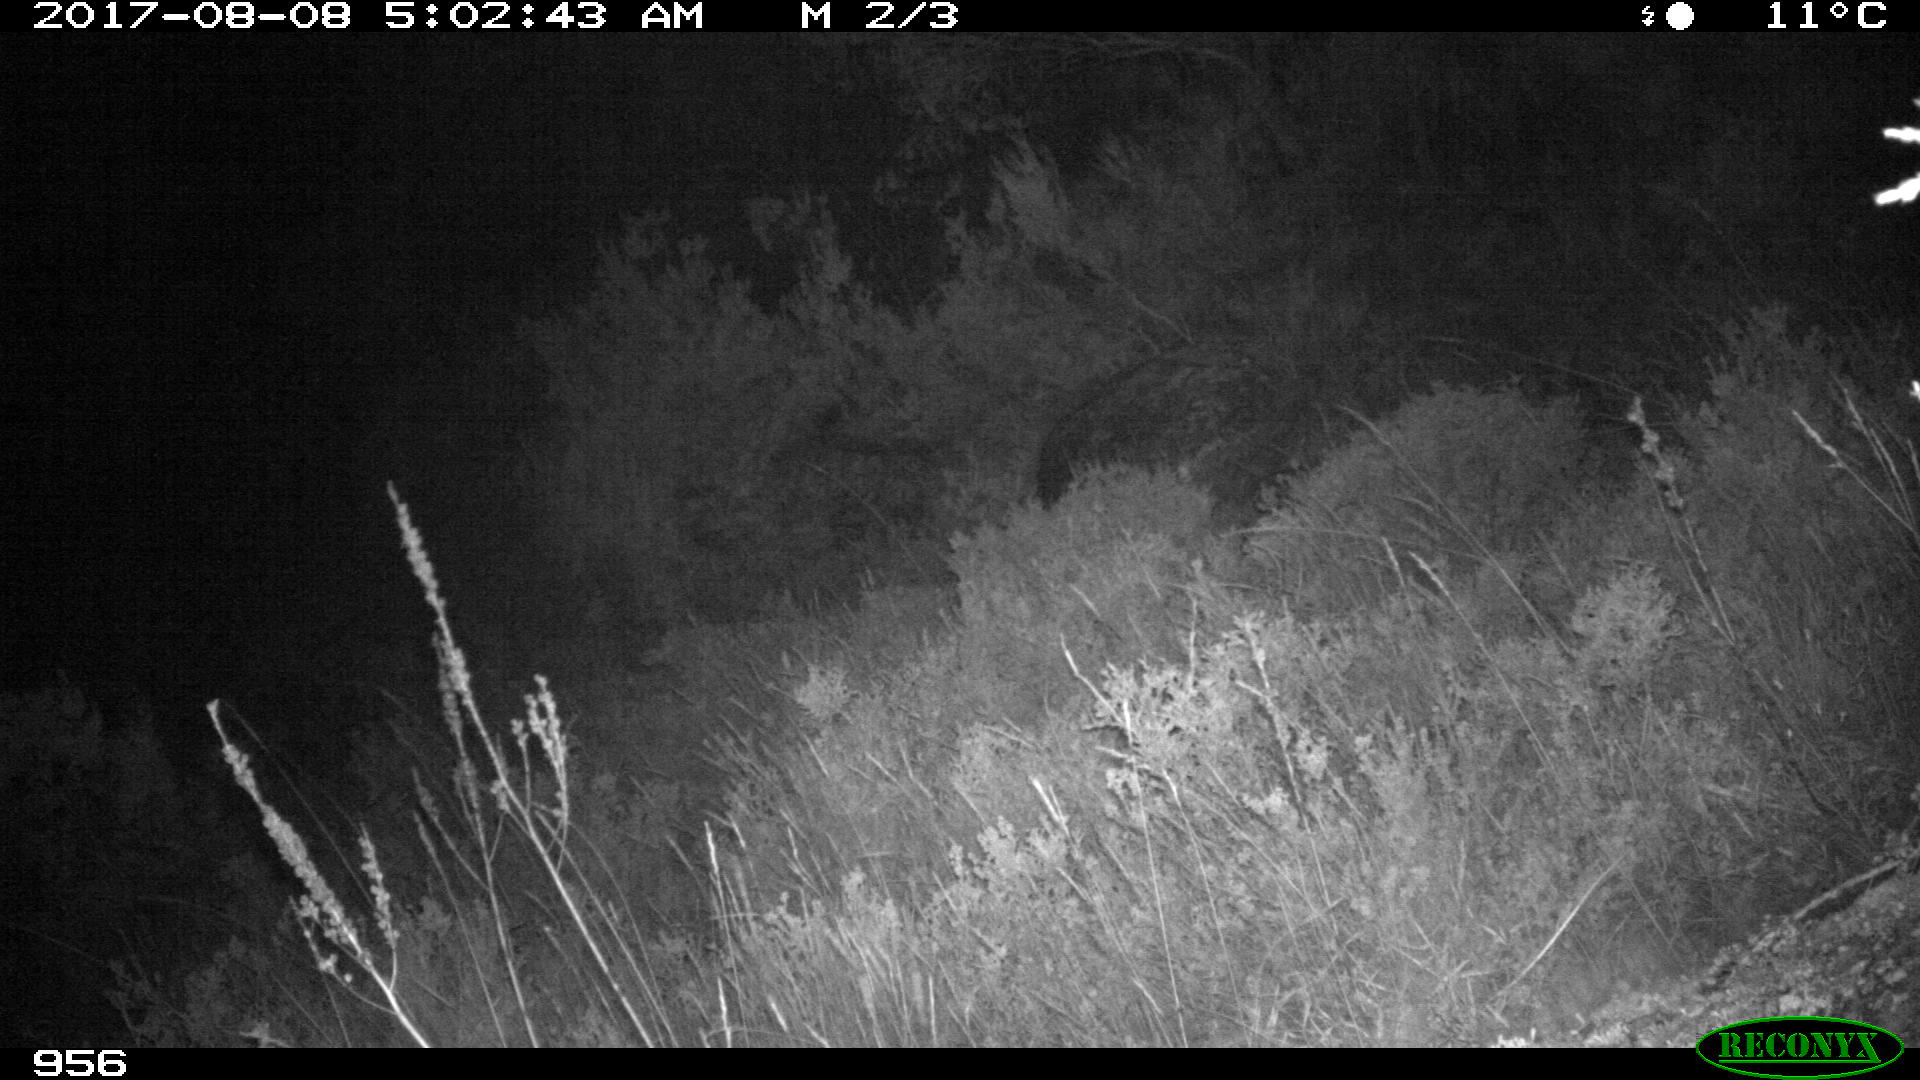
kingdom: Animalia
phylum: Chordata
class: Mammalia
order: Artiodactyla
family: Suidae
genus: Sus
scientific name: Sus scrofa
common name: Wild boar
